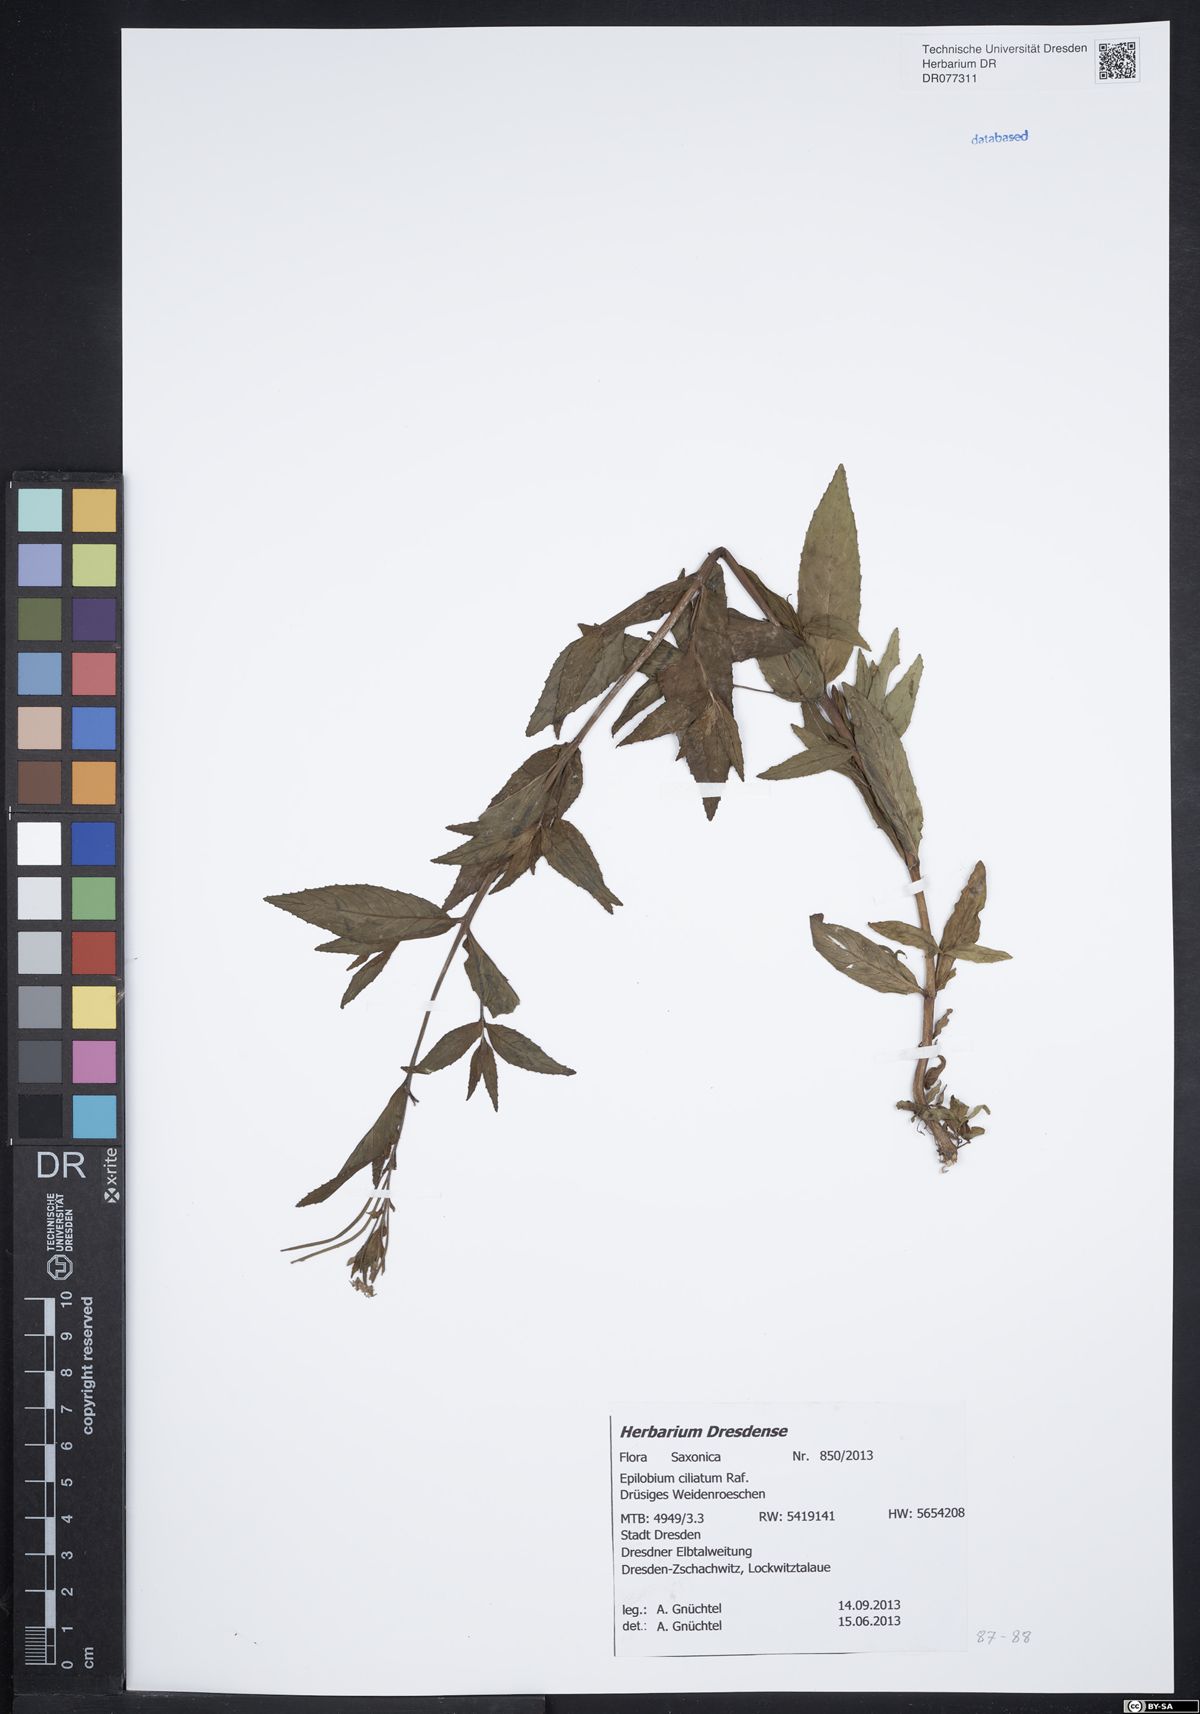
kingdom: Plantae
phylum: Tracheophyta
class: Magnoliopsida
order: Myrtales
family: Onagraceae
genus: Epilobium
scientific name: Epilobium ciliatum
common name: American willowherb
